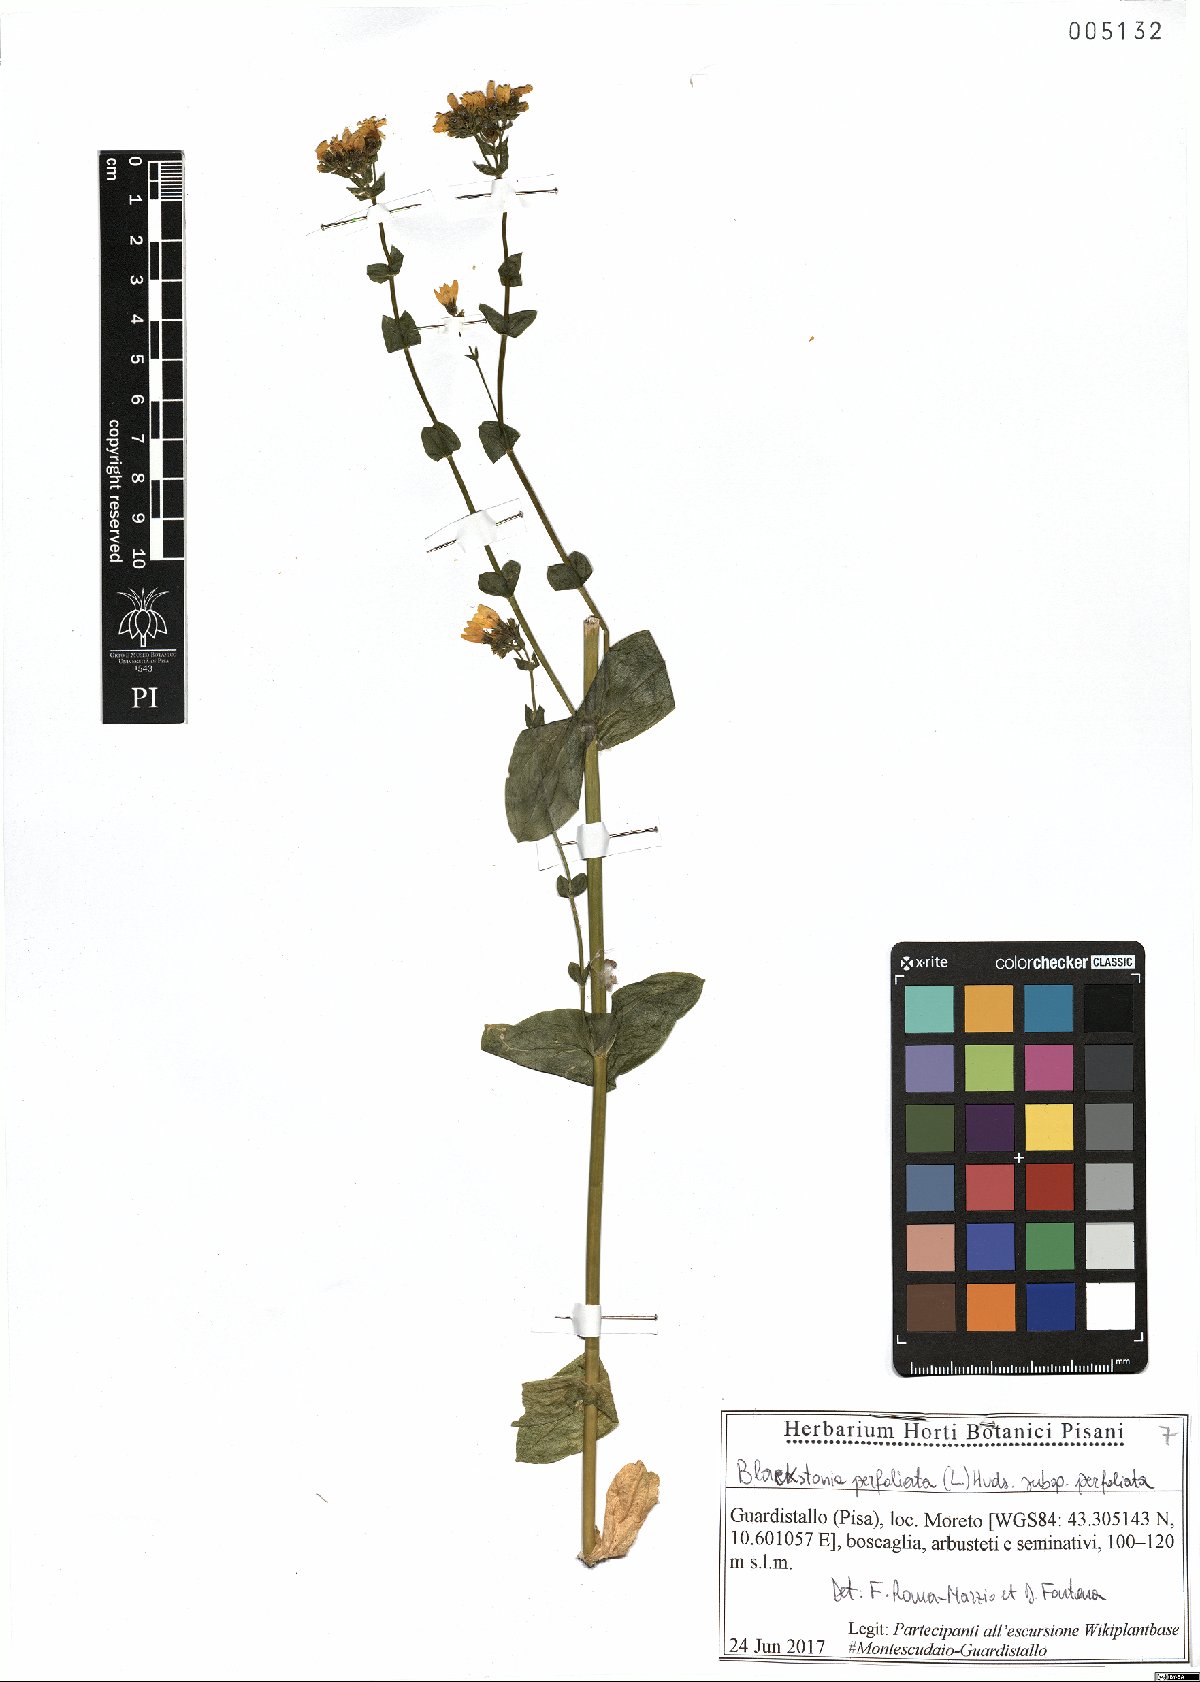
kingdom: Plantae
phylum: Tracheophyta
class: Magnoliopsida
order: Gentianales
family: Gentianaceae
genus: Blackstonia
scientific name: Blackstonia perfoliata
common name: Yellow-wort
